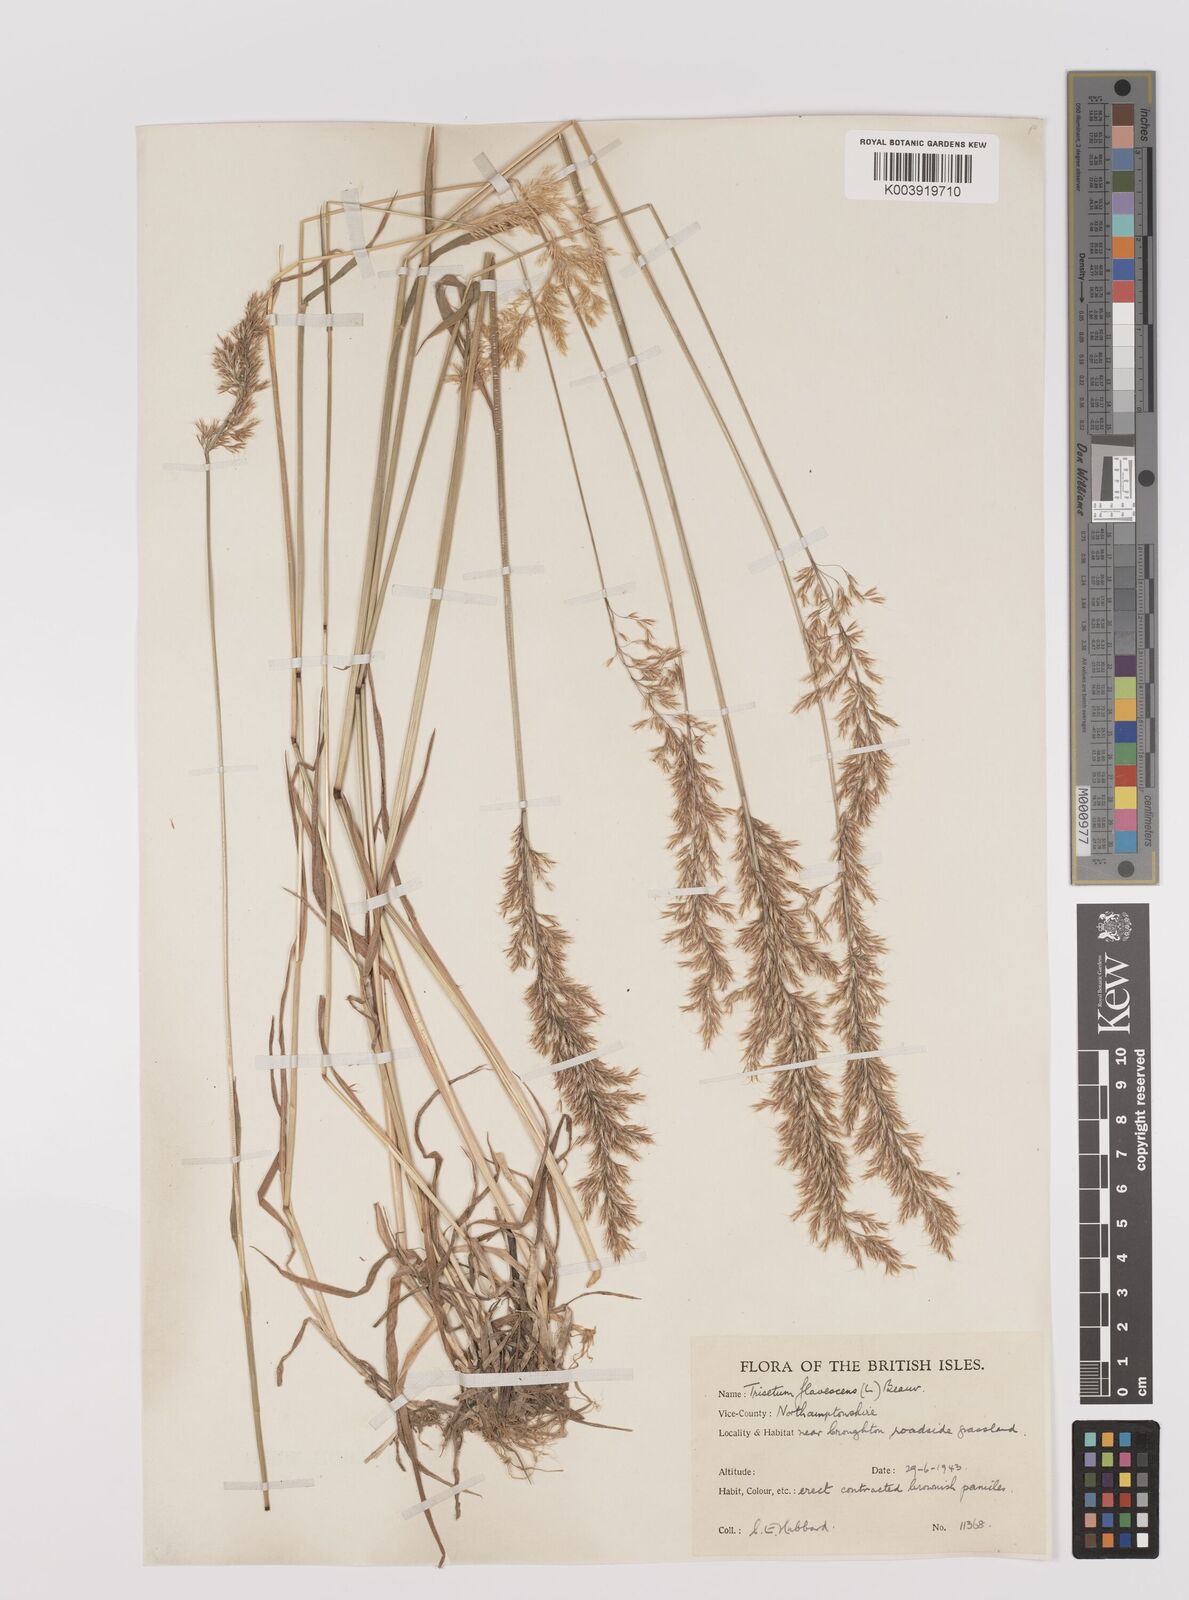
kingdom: Plantae
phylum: Tracheophyta
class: Liliopsida
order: Poales
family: Poaceae
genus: Trisetum
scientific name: Trisetum flavescens
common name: Yellow oat-grass
